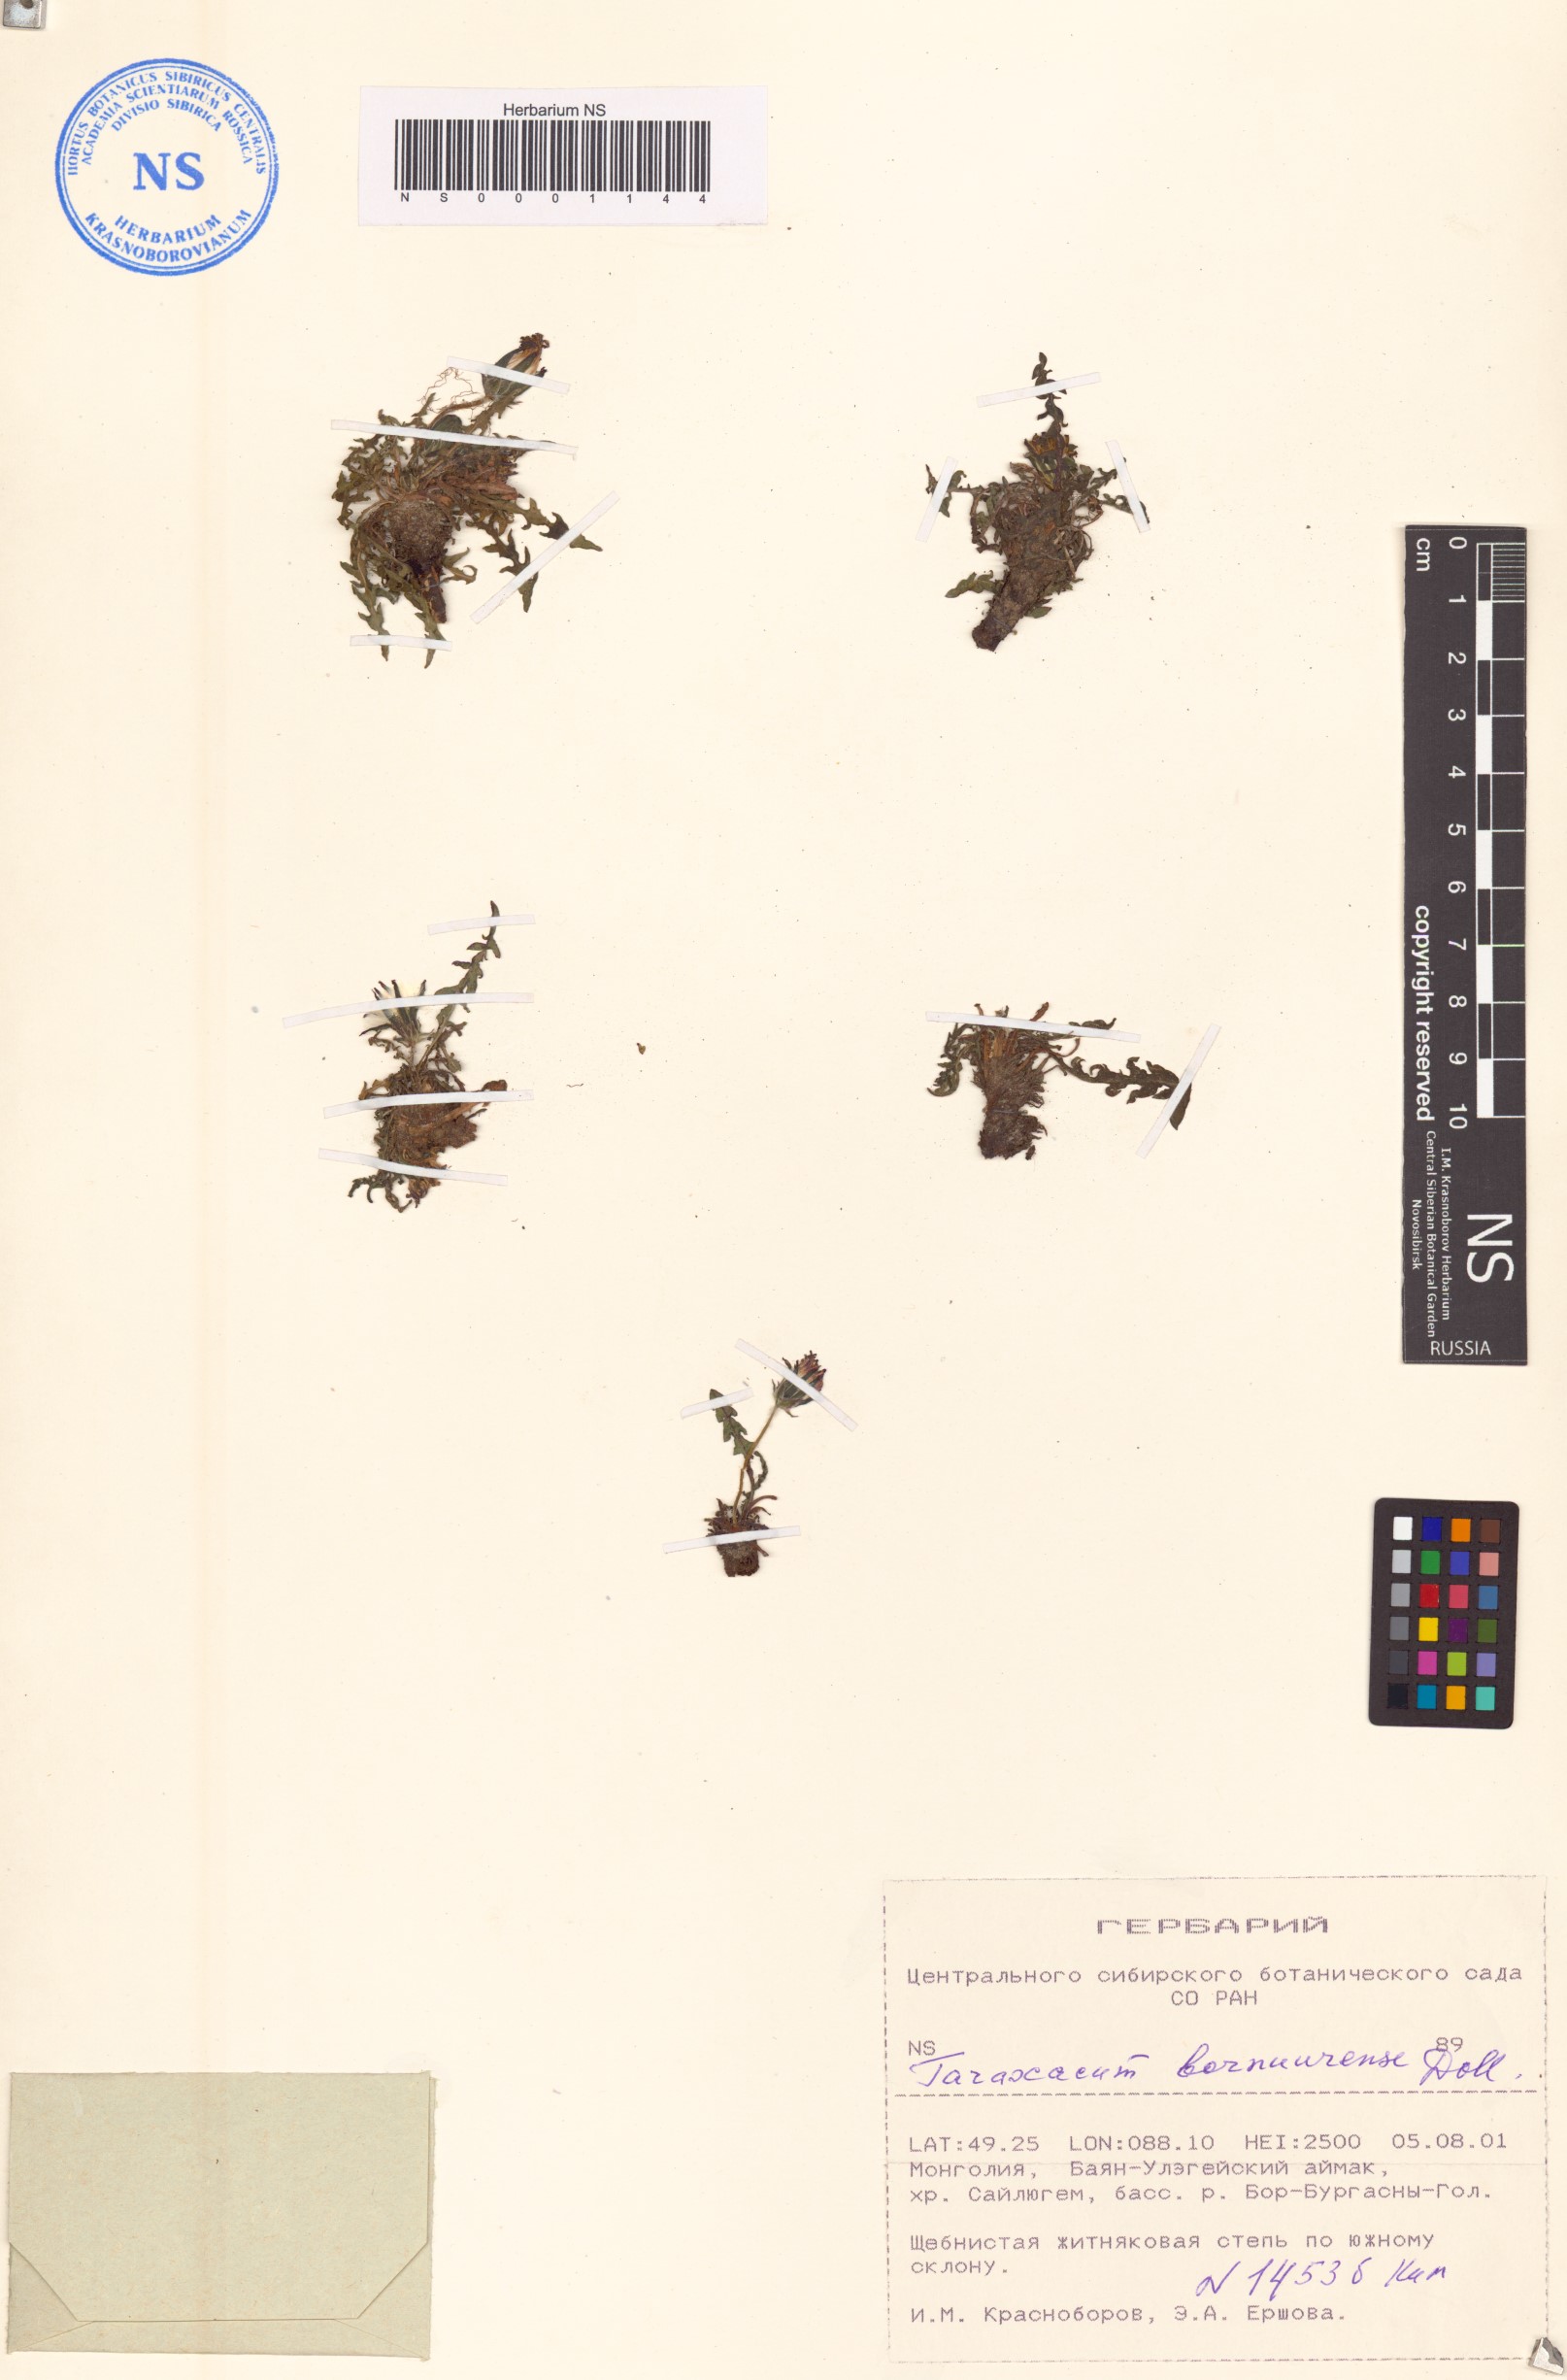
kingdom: Plantae
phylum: Tracheophyta
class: Magnoliopsida
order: Asterales
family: Asteraceae
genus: Taraxacum
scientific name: Taraxacum ussuriense
